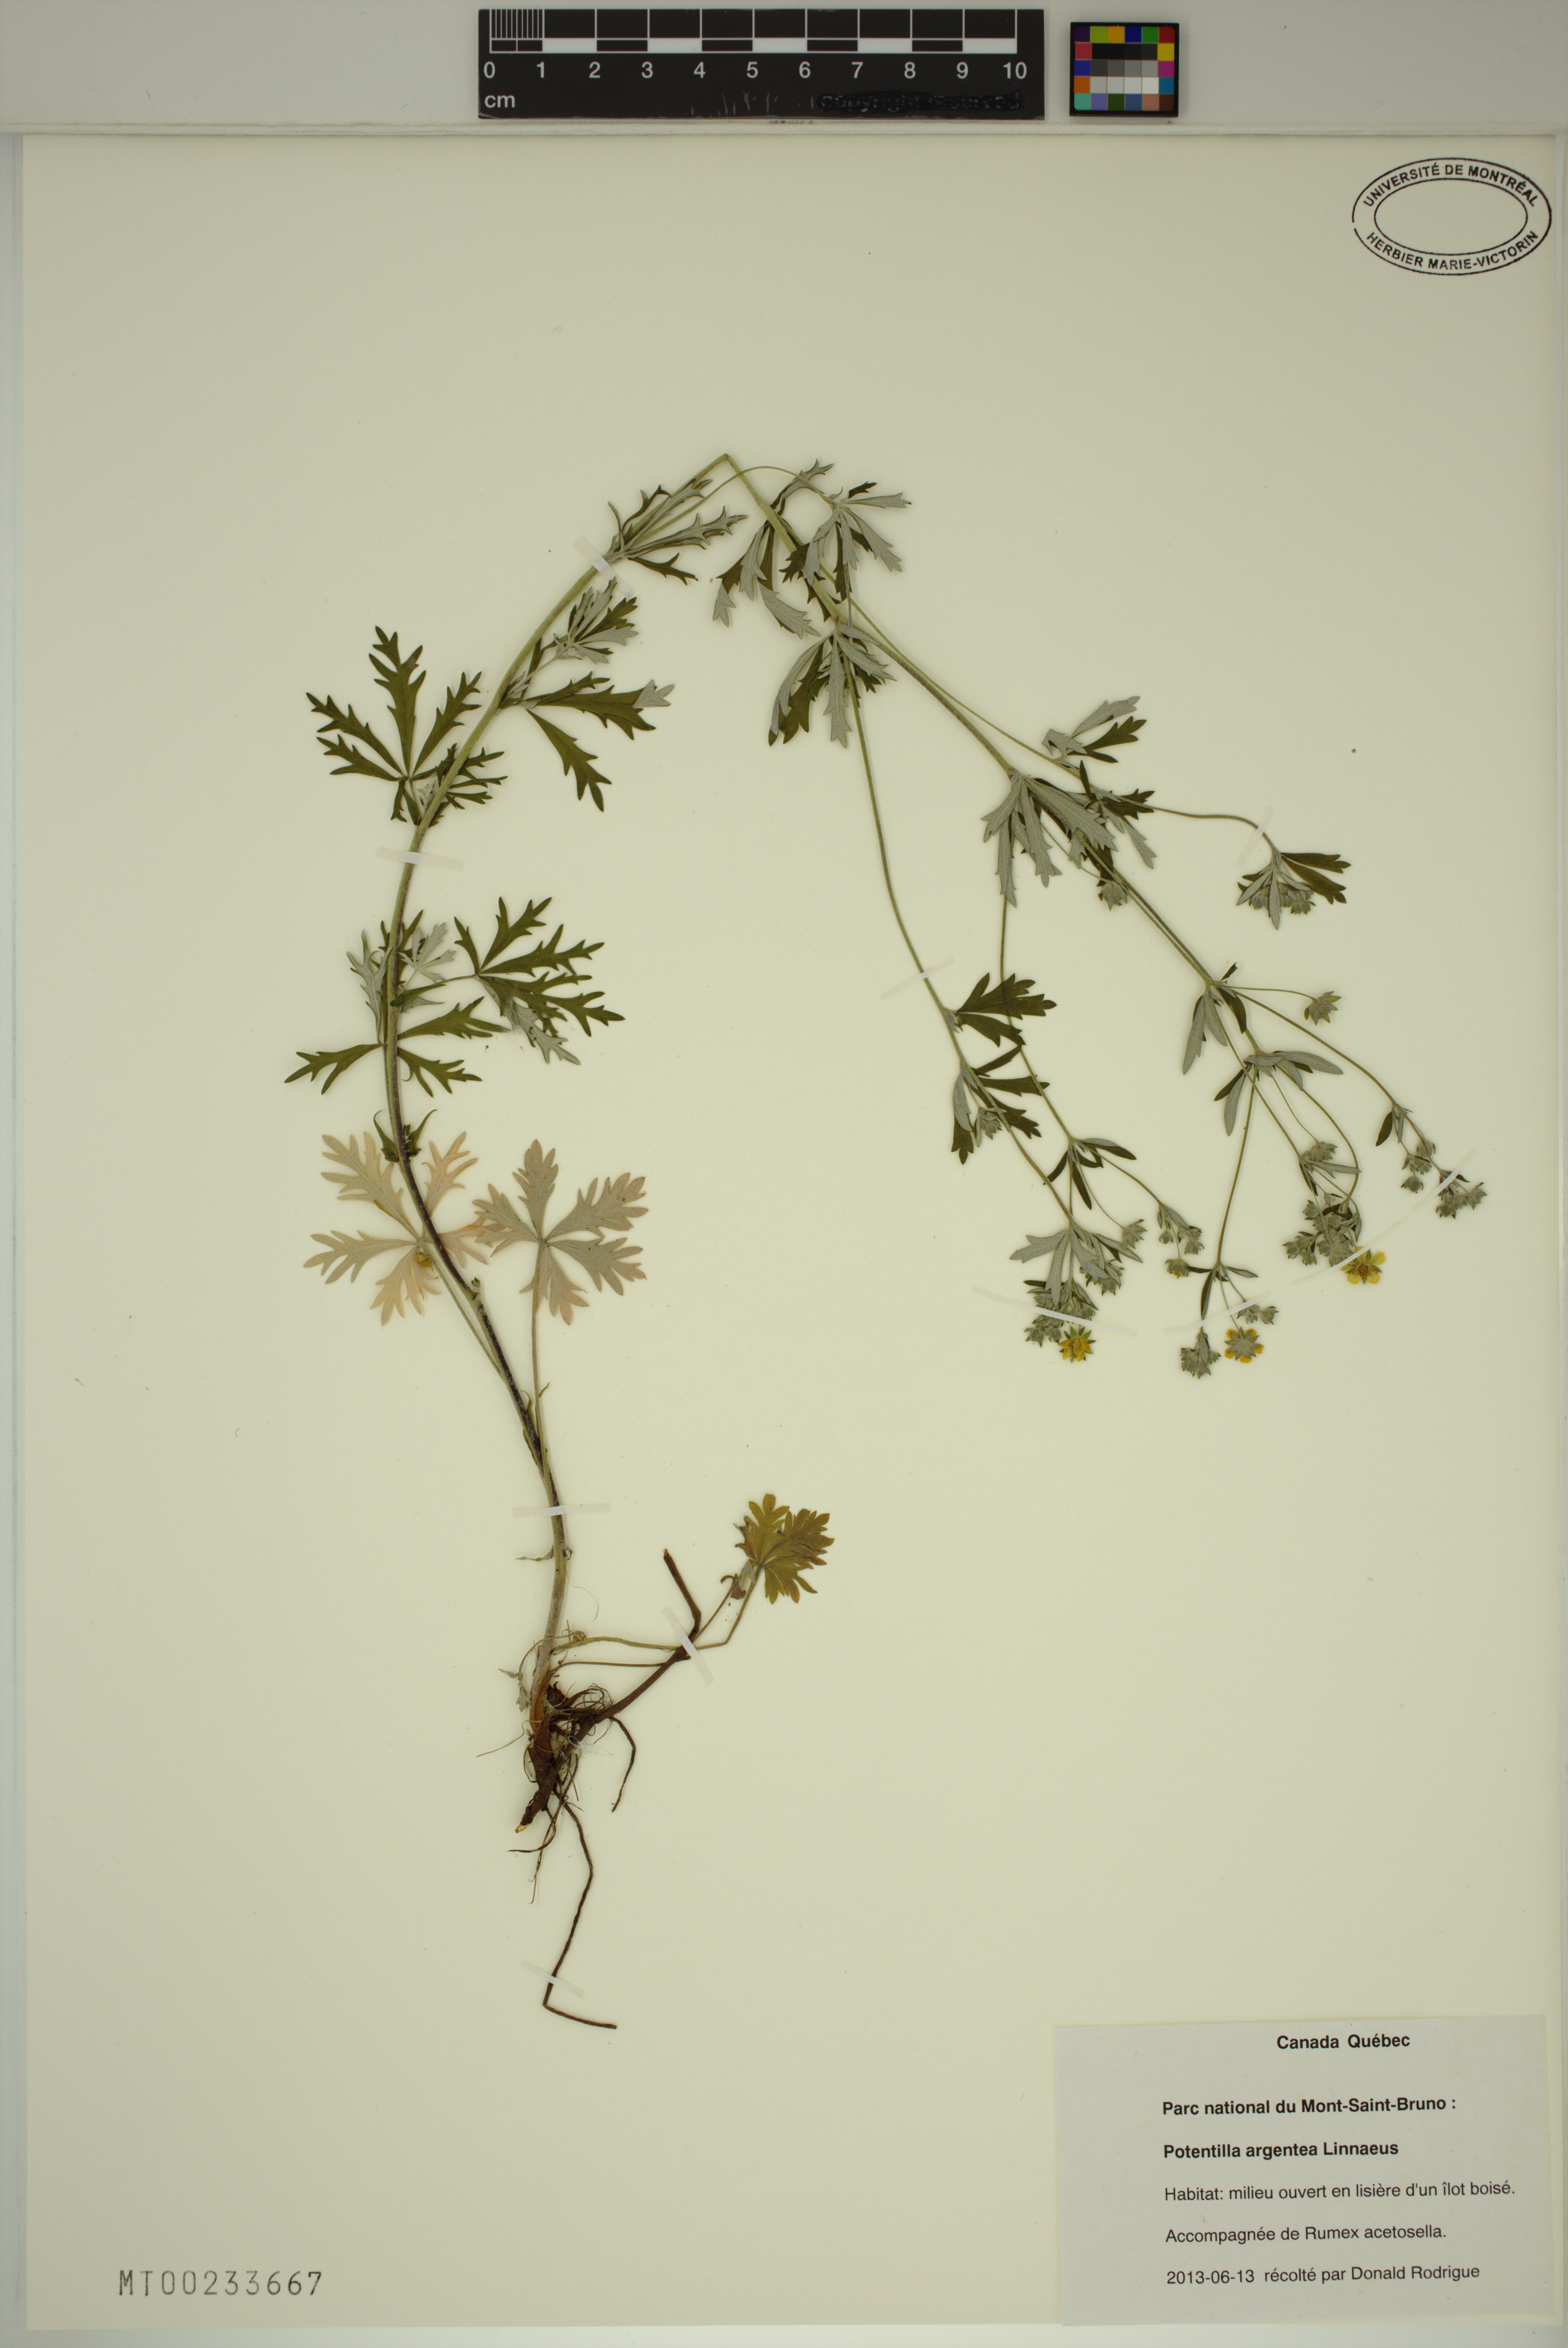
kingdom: Plantae
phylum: Tracheophyta
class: Magnoliopsida
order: Rosales
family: Rosaceae
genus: Potentilla
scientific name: Potentilla argentea
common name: Hoary cinquefoil
